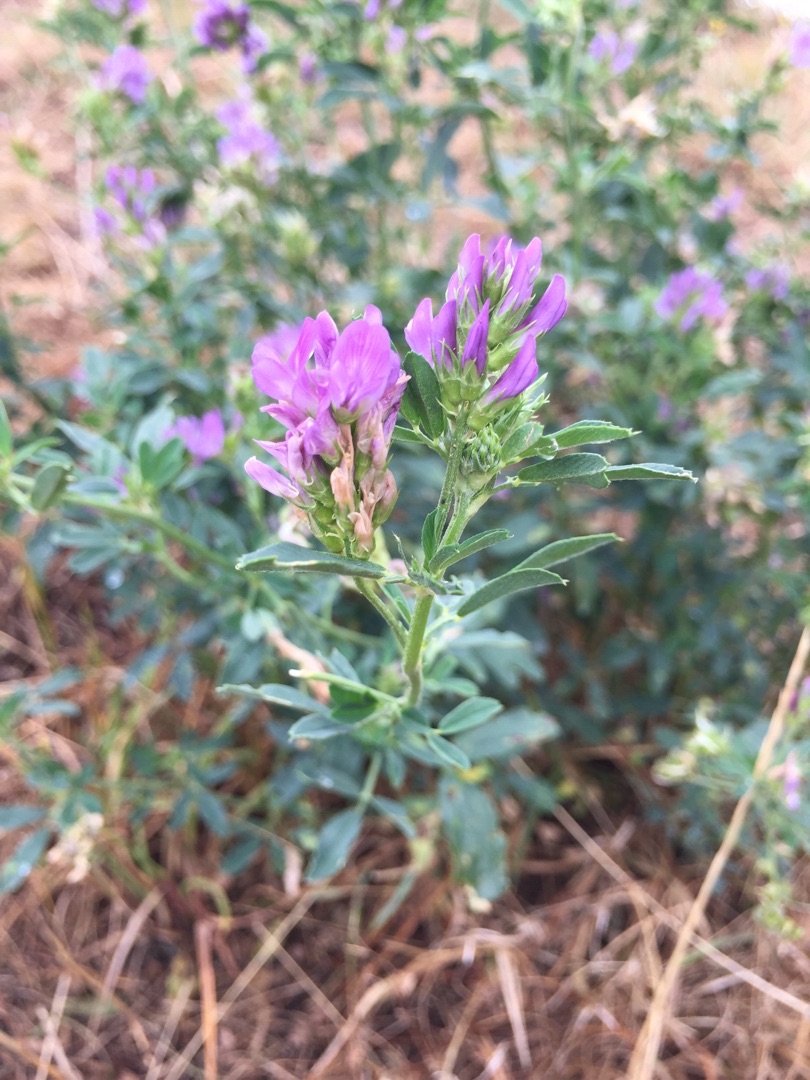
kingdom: Plantae
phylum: Tracheophyta
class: Magnoliopsida
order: Fabales
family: Fabaceae
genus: Medicago
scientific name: Medicago sativa
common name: Lucerne
